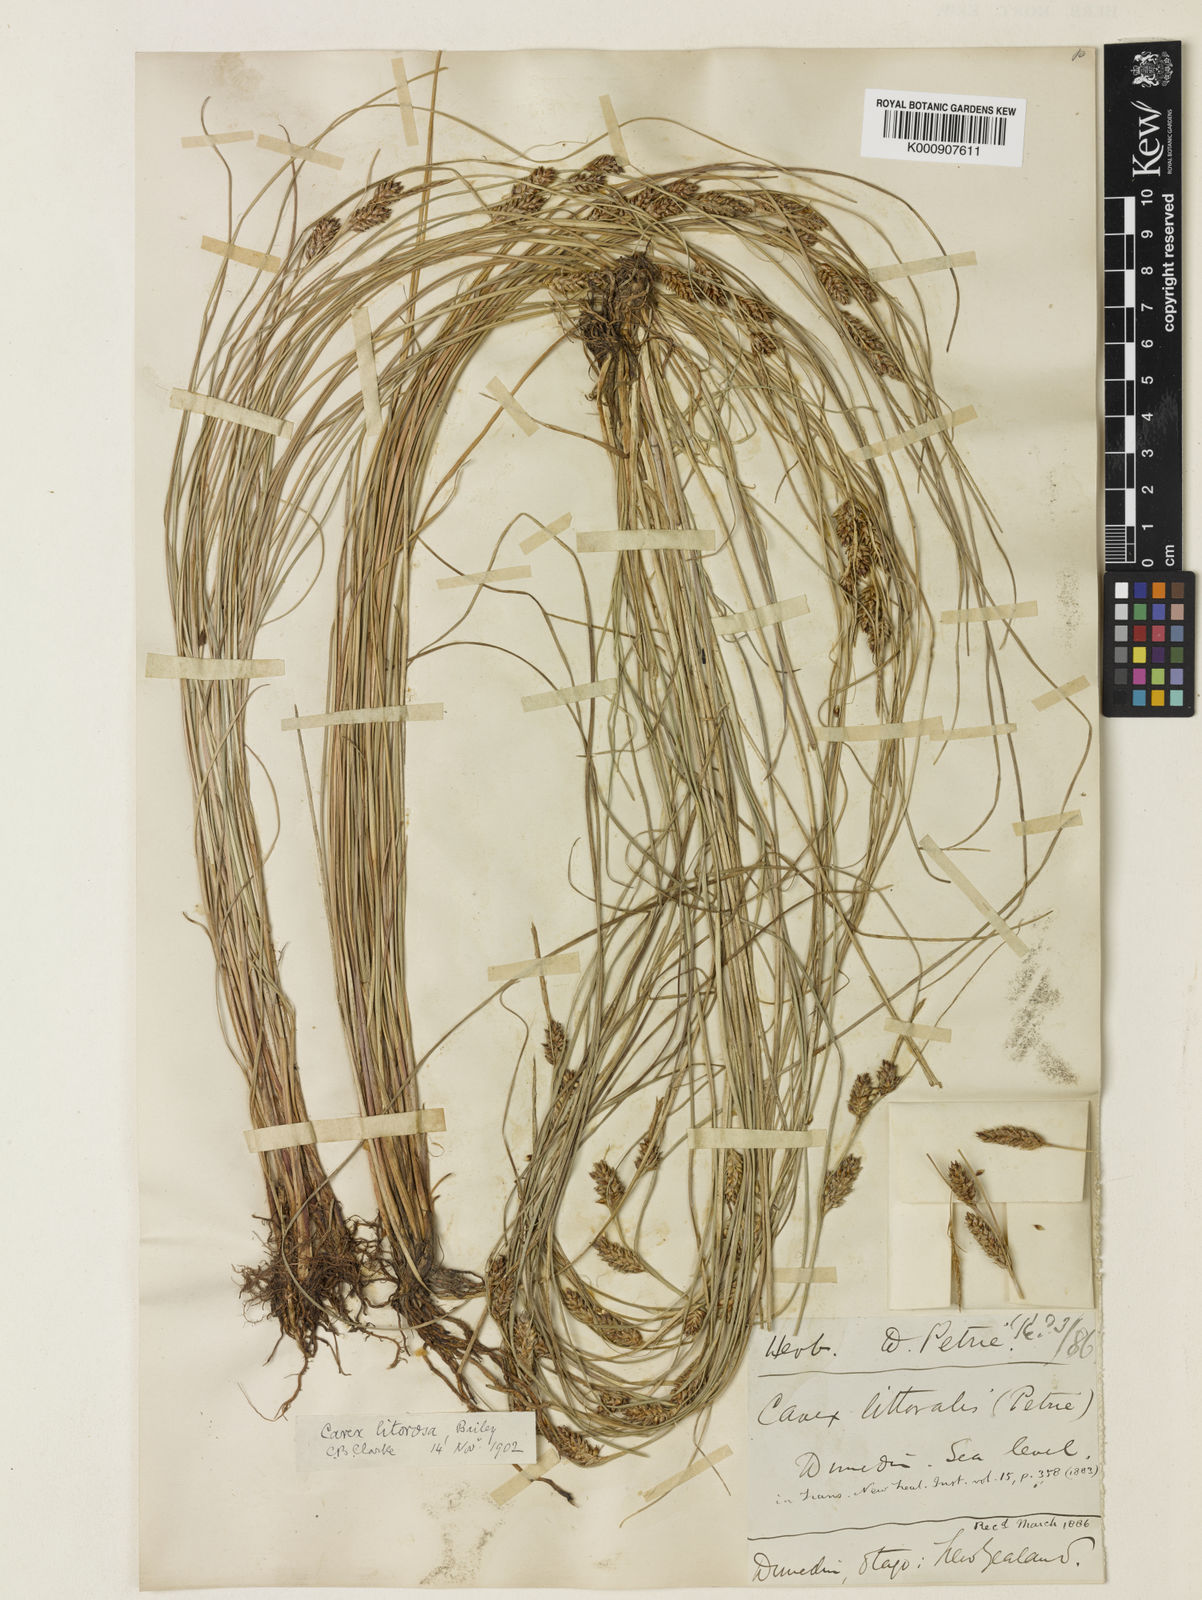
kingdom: Plantae
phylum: Tracheophyta
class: Liliopsida
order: Poales
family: Cyperaceae
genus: Carex
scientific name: Carex litorosa
